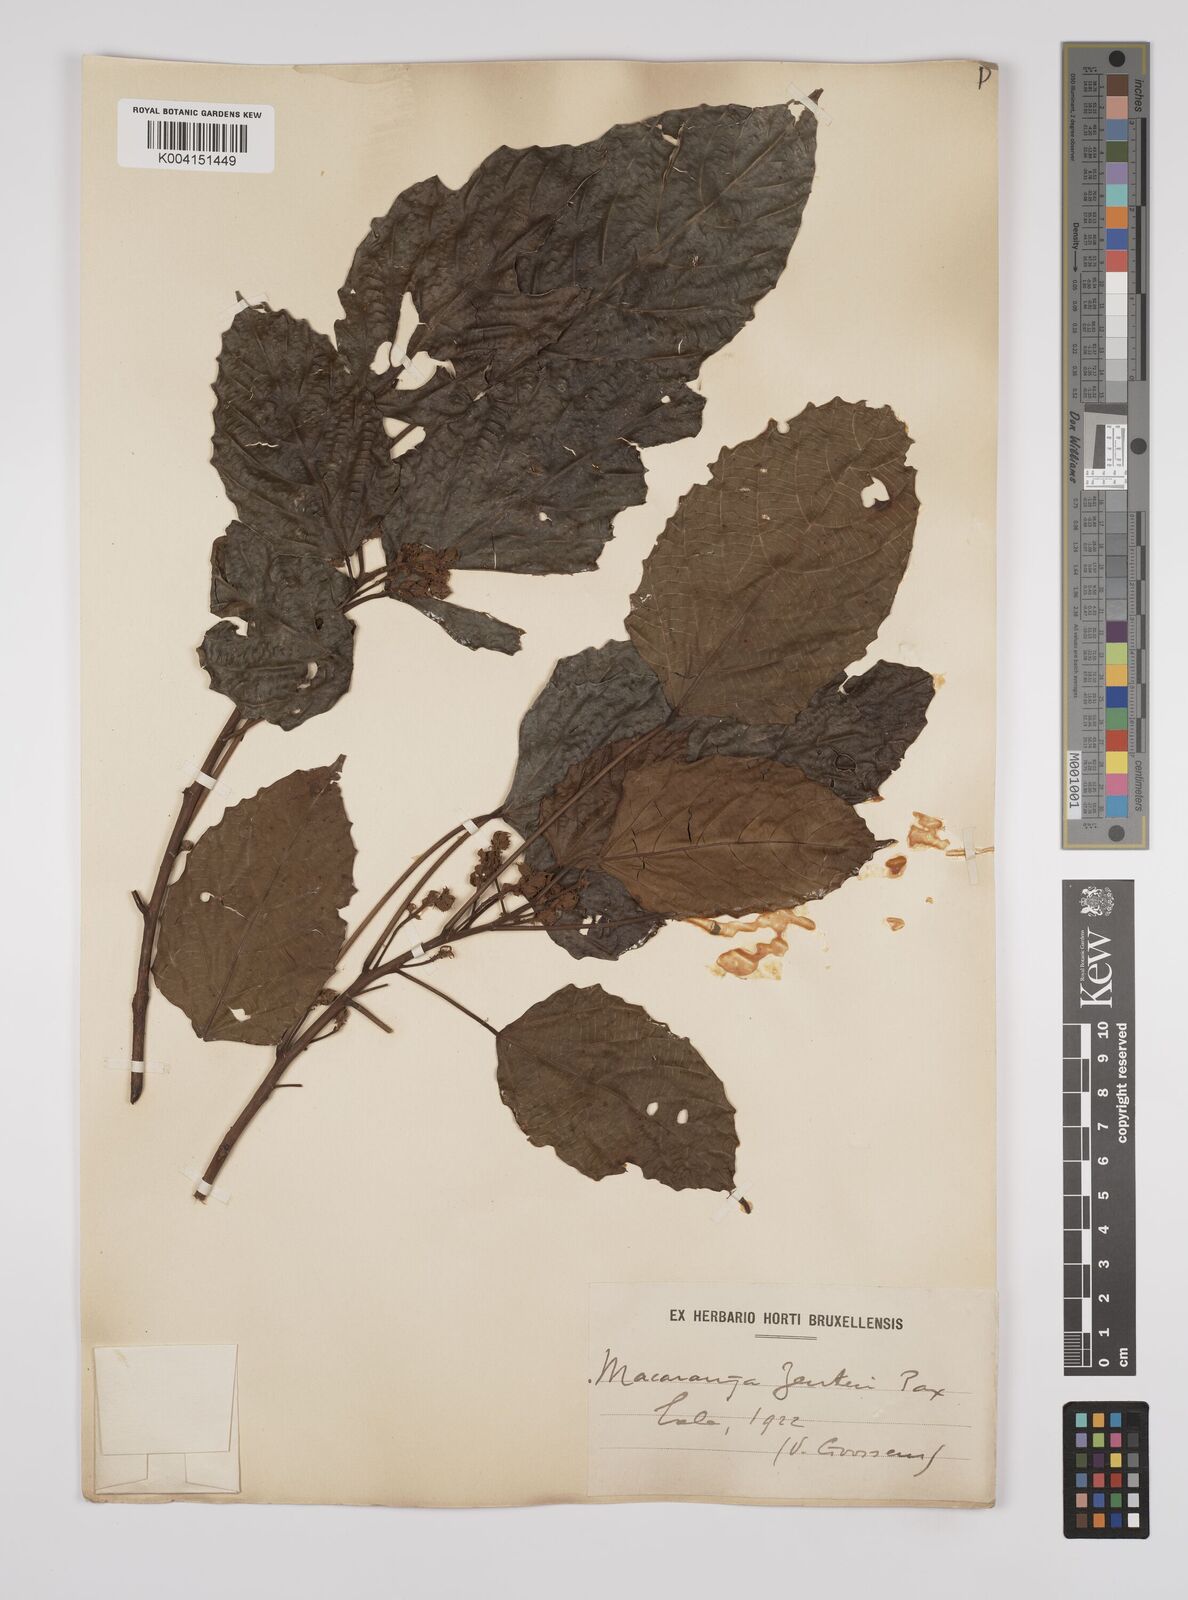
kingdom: Plantae
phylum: Tracheophyta
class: Magnoliopsida
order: Malpighiales
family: Euphorbiaceae
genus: Macaranga
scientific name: Macaranga monandra
